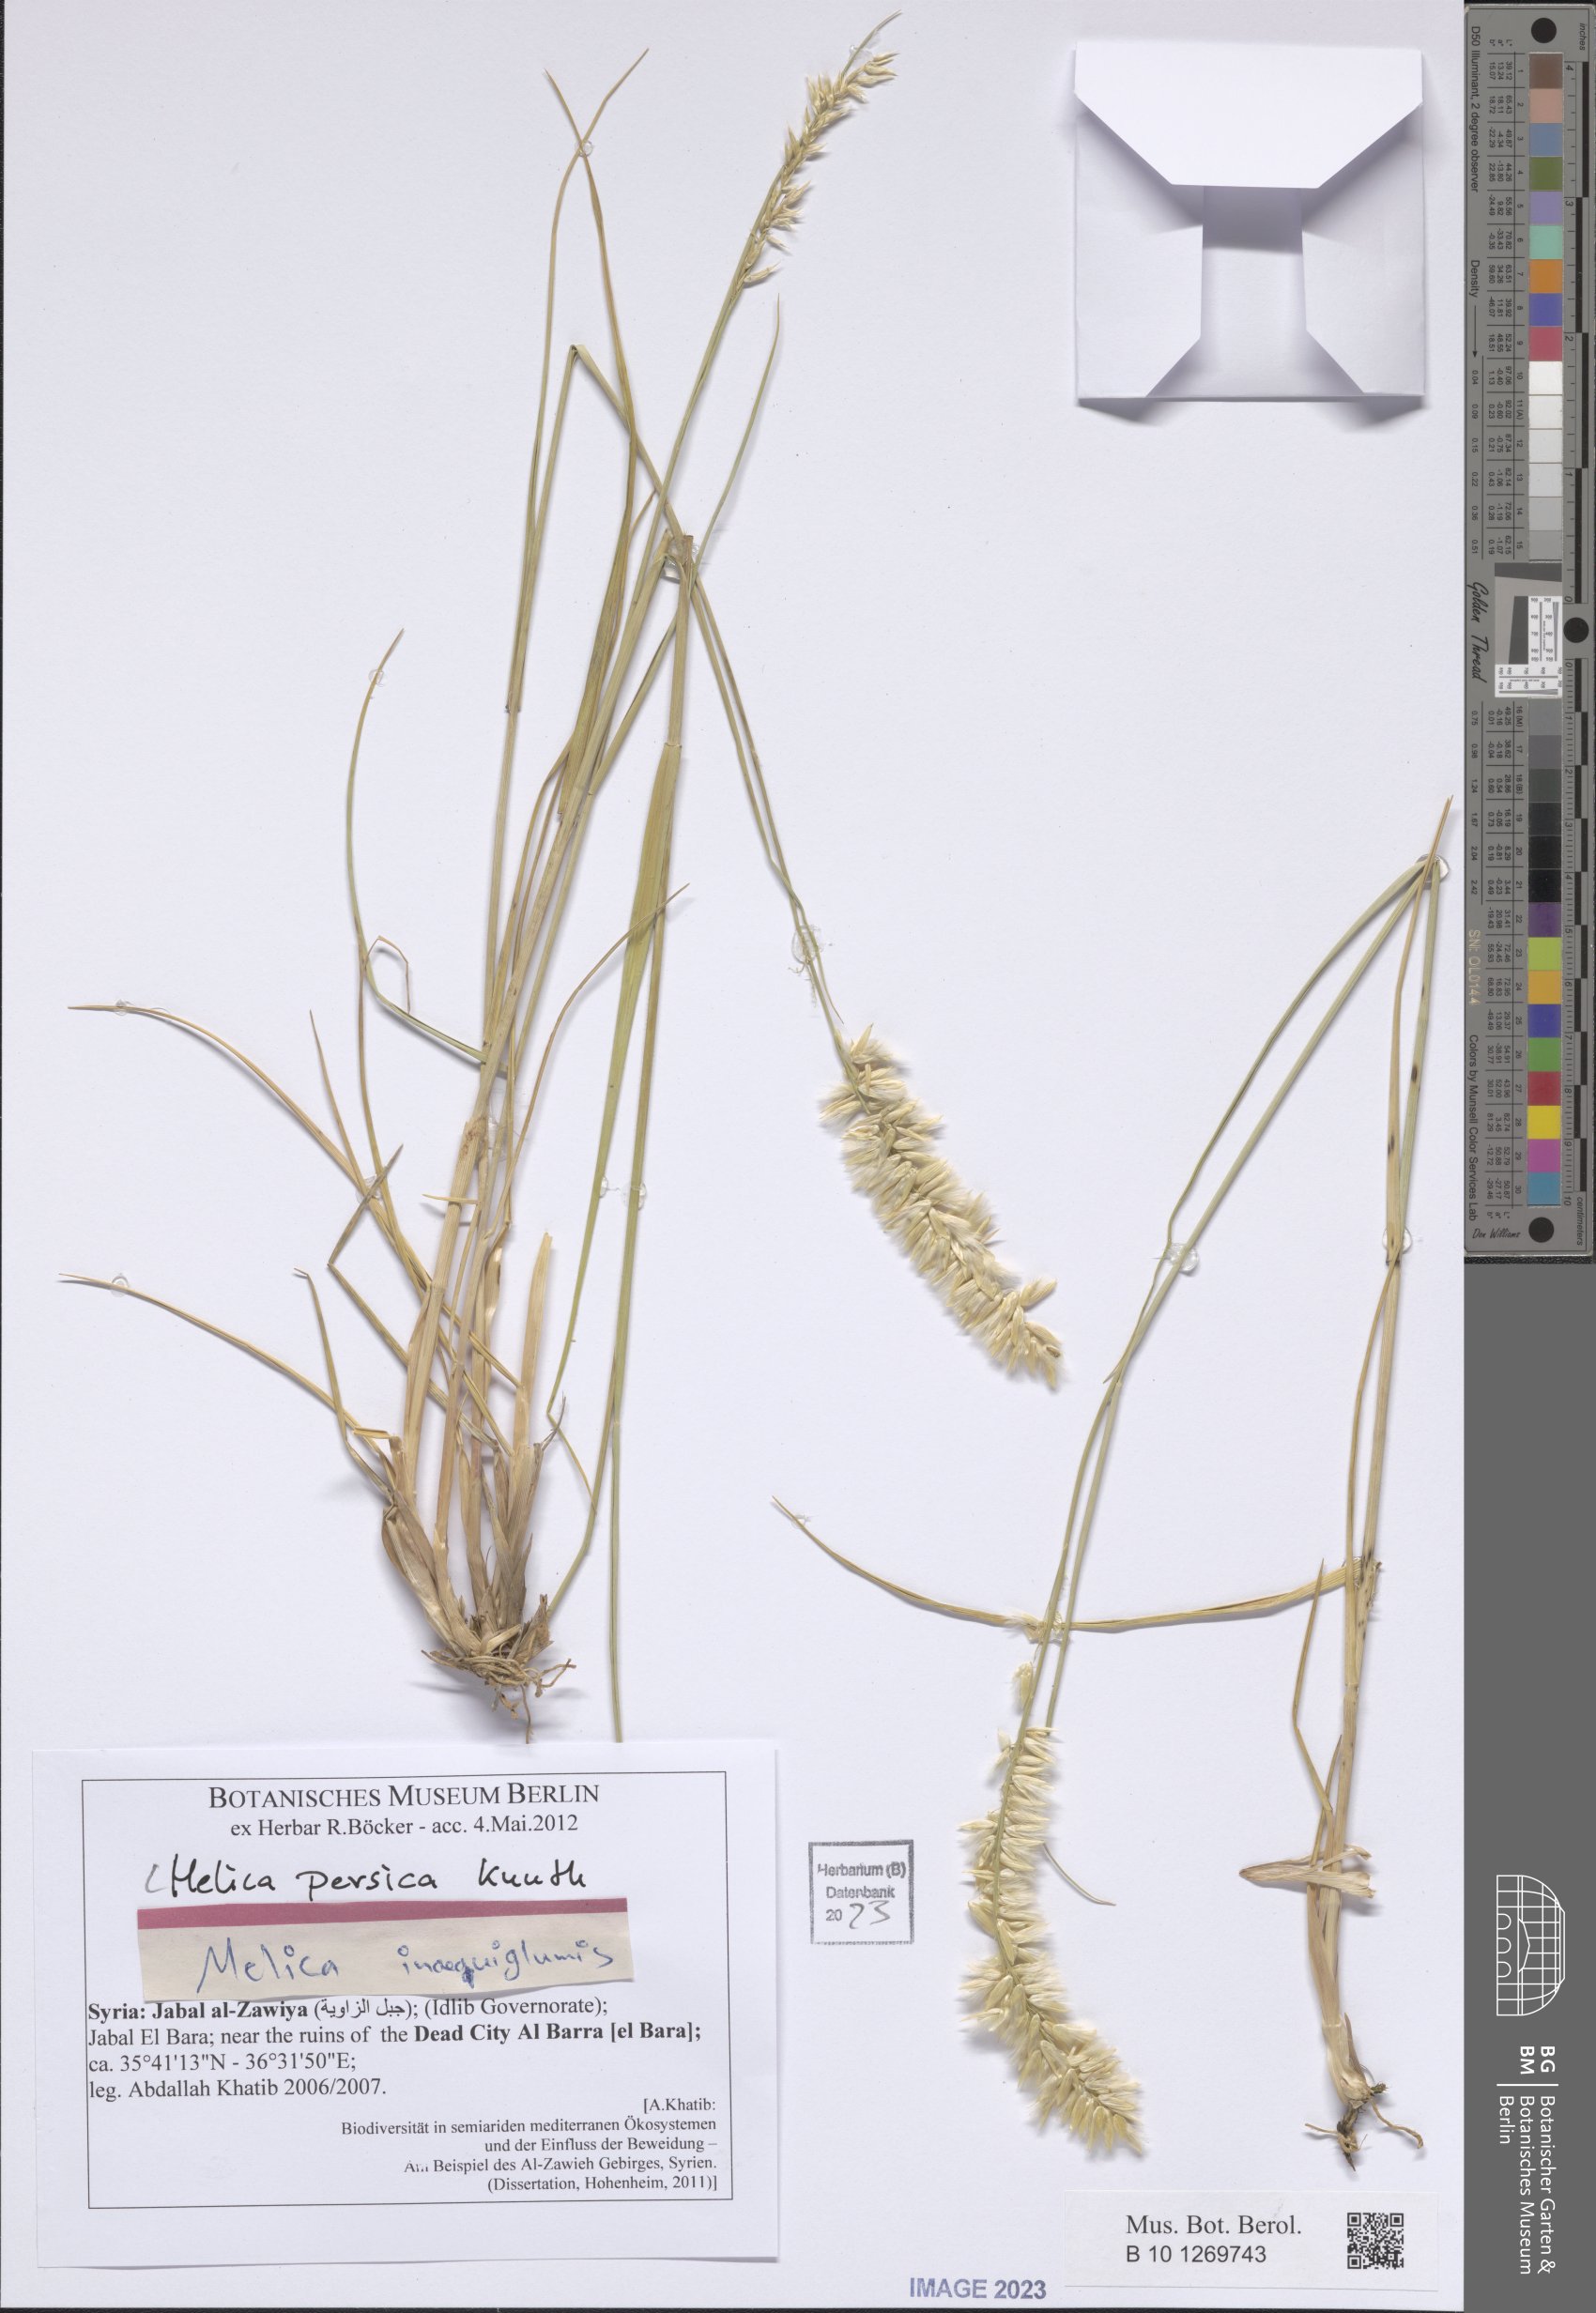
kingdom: Plantae
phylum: Tracheophyta
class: Liliopsida
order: Poales
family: Poaceae
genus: Melica
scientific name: Melica persica
